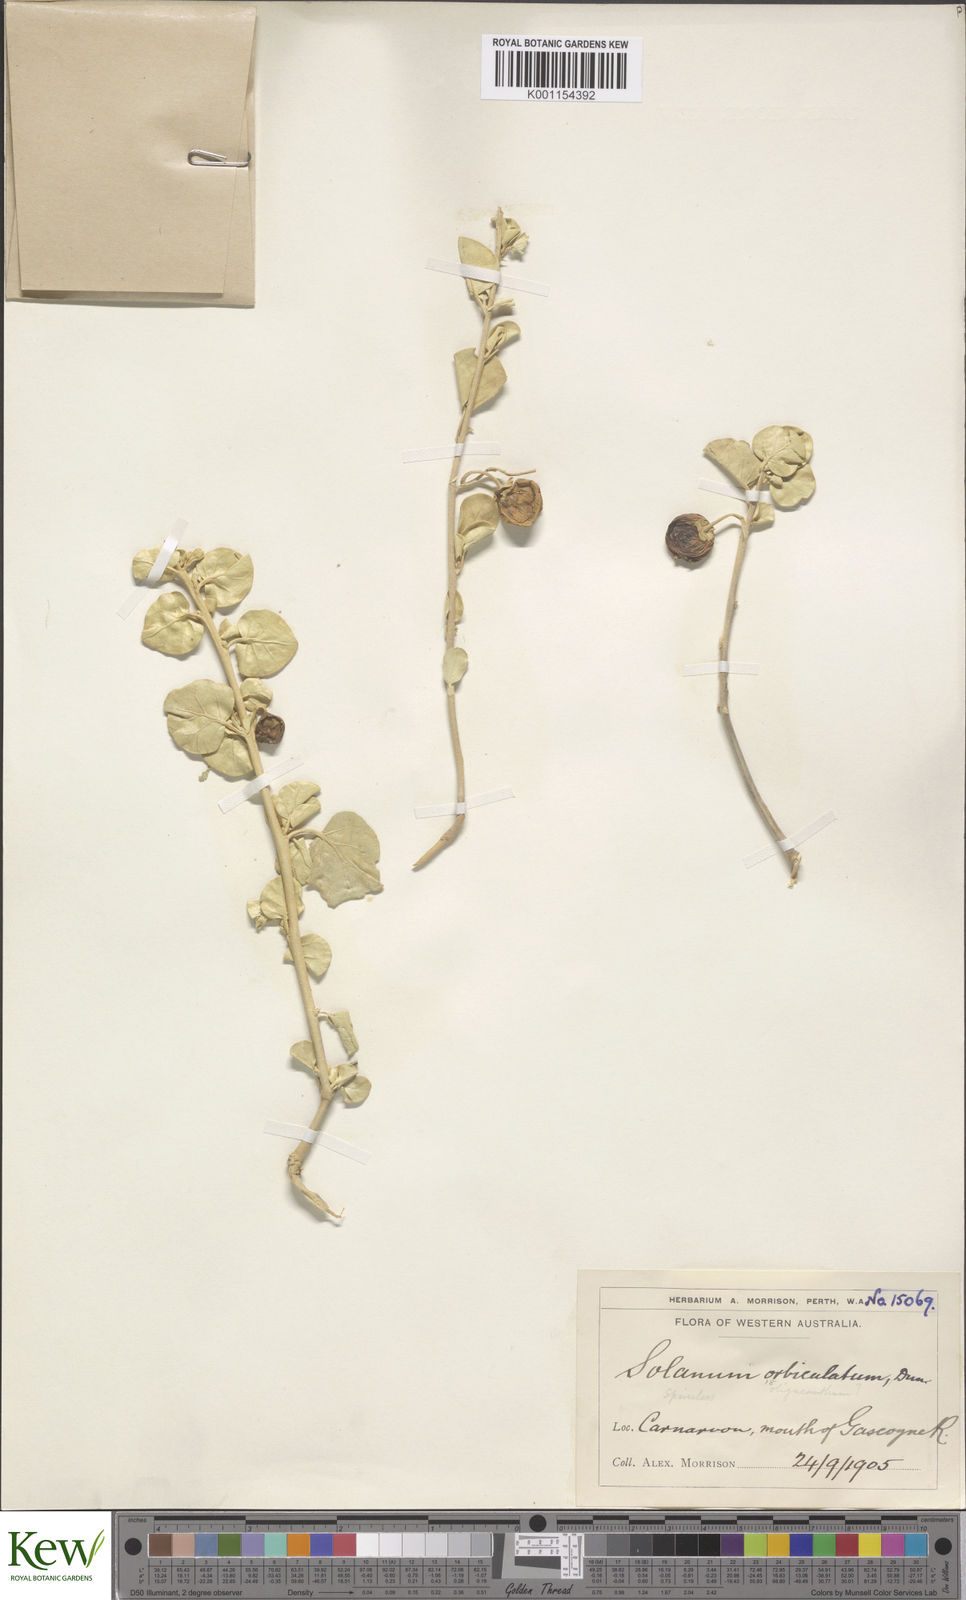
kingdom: Plantae
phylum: Tracheophyta
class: Magnoliopsida
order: Solanales
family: Solanaceae
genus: Solanum
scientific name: Solanum orbiculatum
